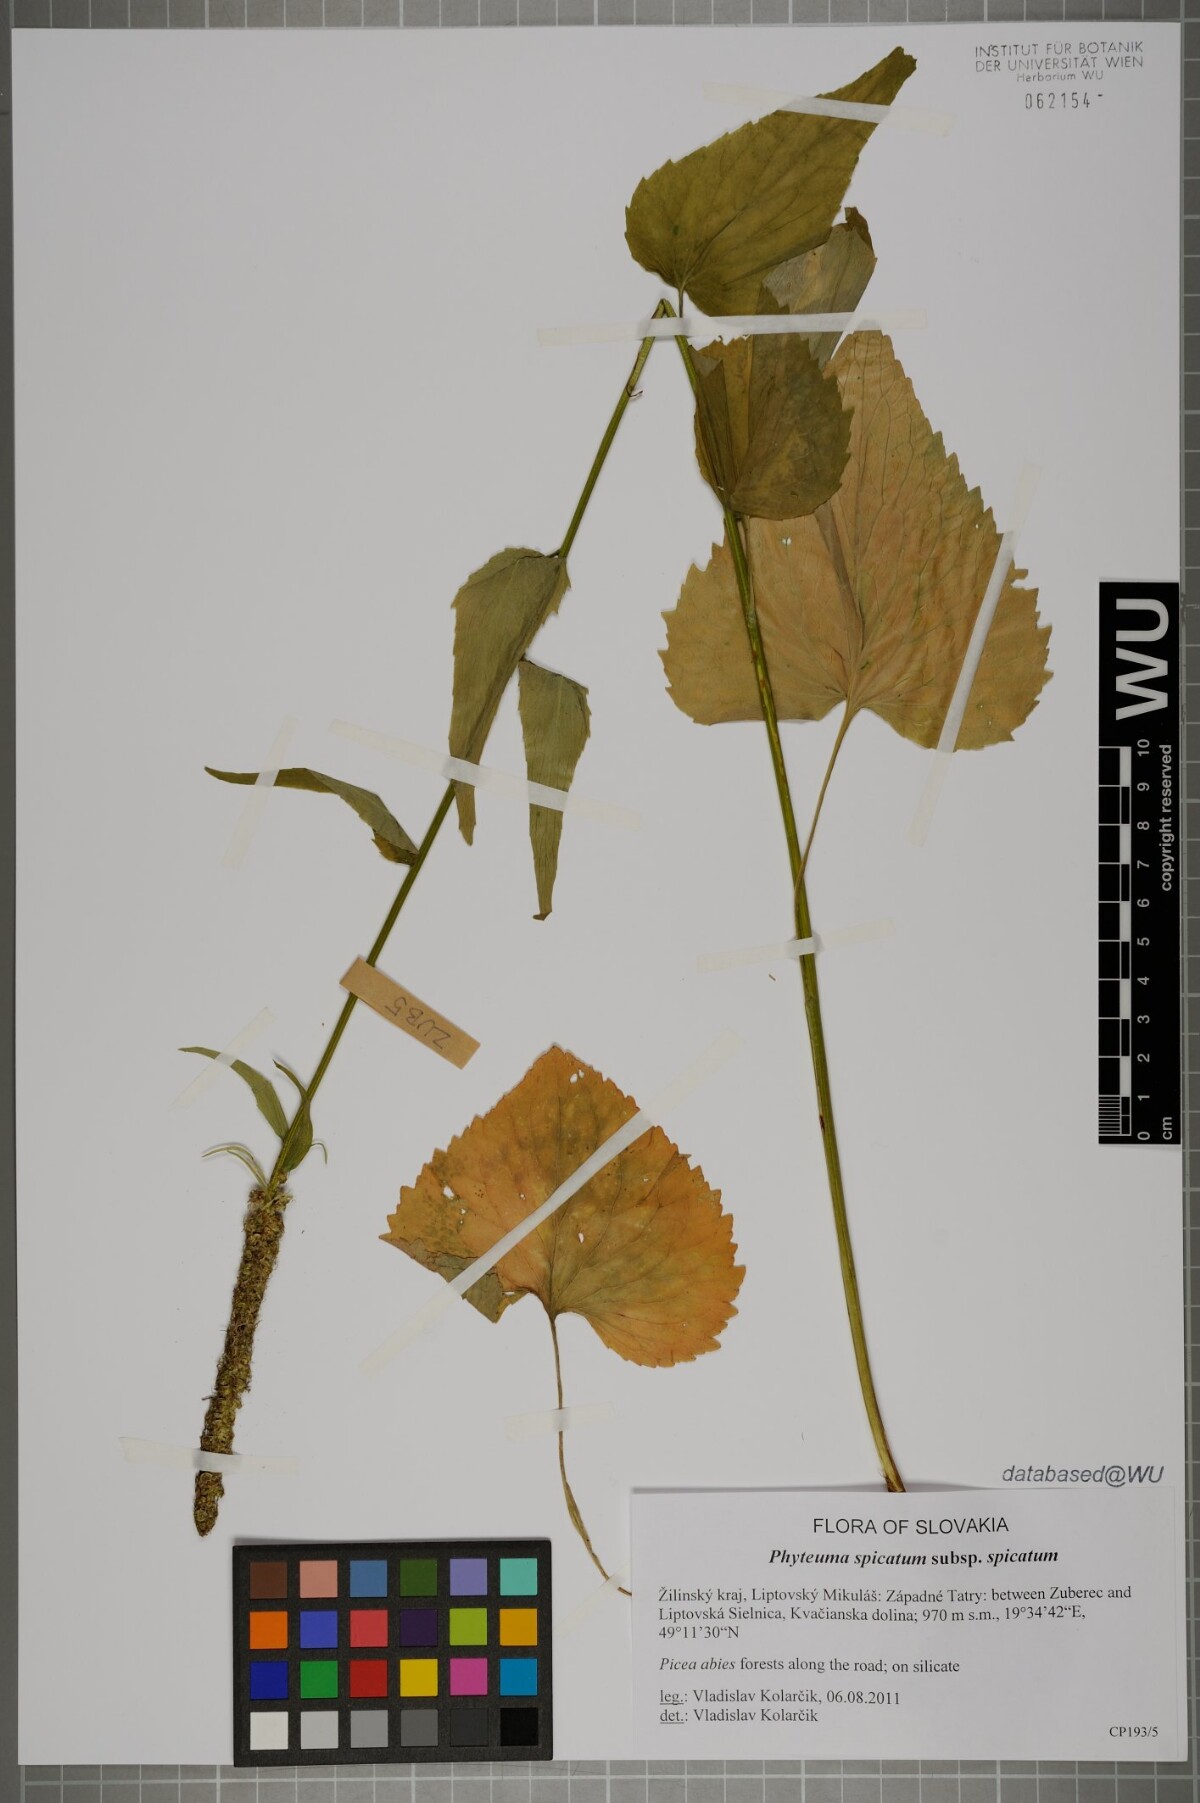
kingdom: Plantae
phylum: Tracheophyta
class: Magnoliopsida
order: Asterales
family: Campanulaceae
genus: Phyteuma
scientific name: Phyteuma spicatum
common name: Spiked rampion
